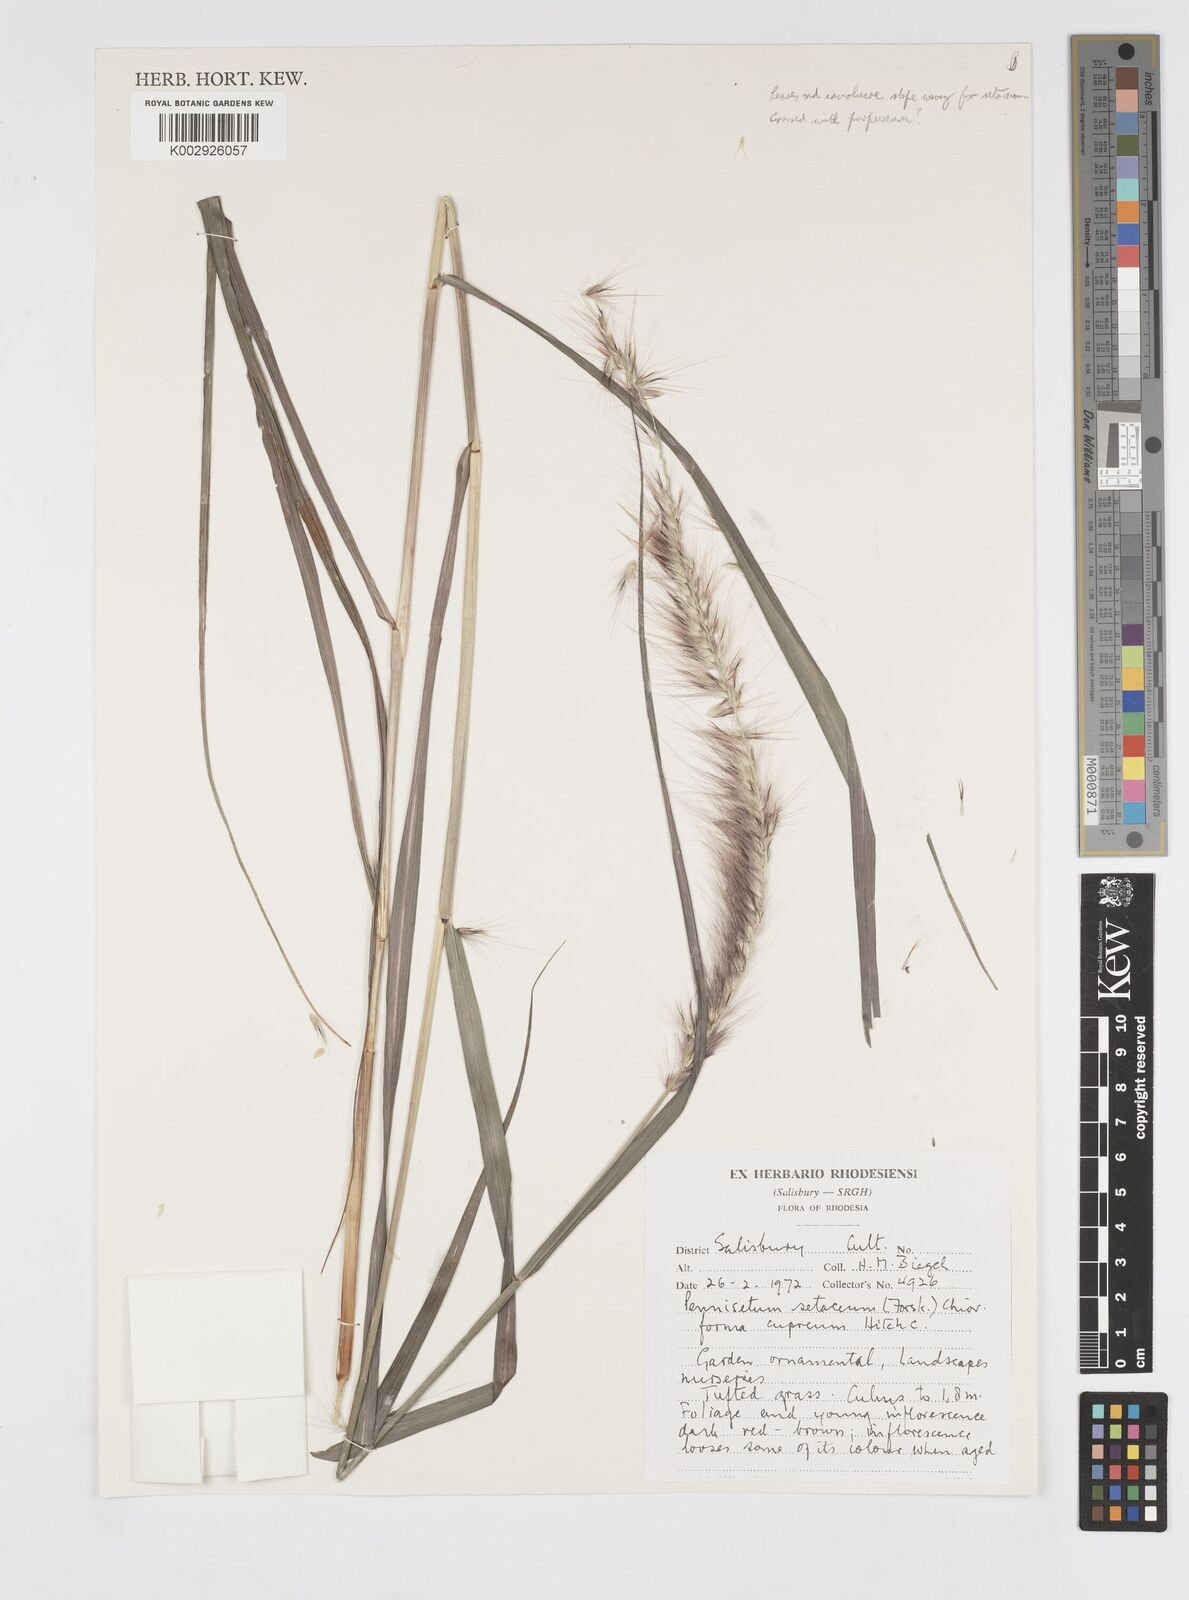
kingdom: Plantae
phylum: Tracheophyta
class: Liliopsida
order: Poales
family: Poaceae
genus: Cenchrus
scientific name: Cenchrus setaceus
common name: Crimson fountaingrass
